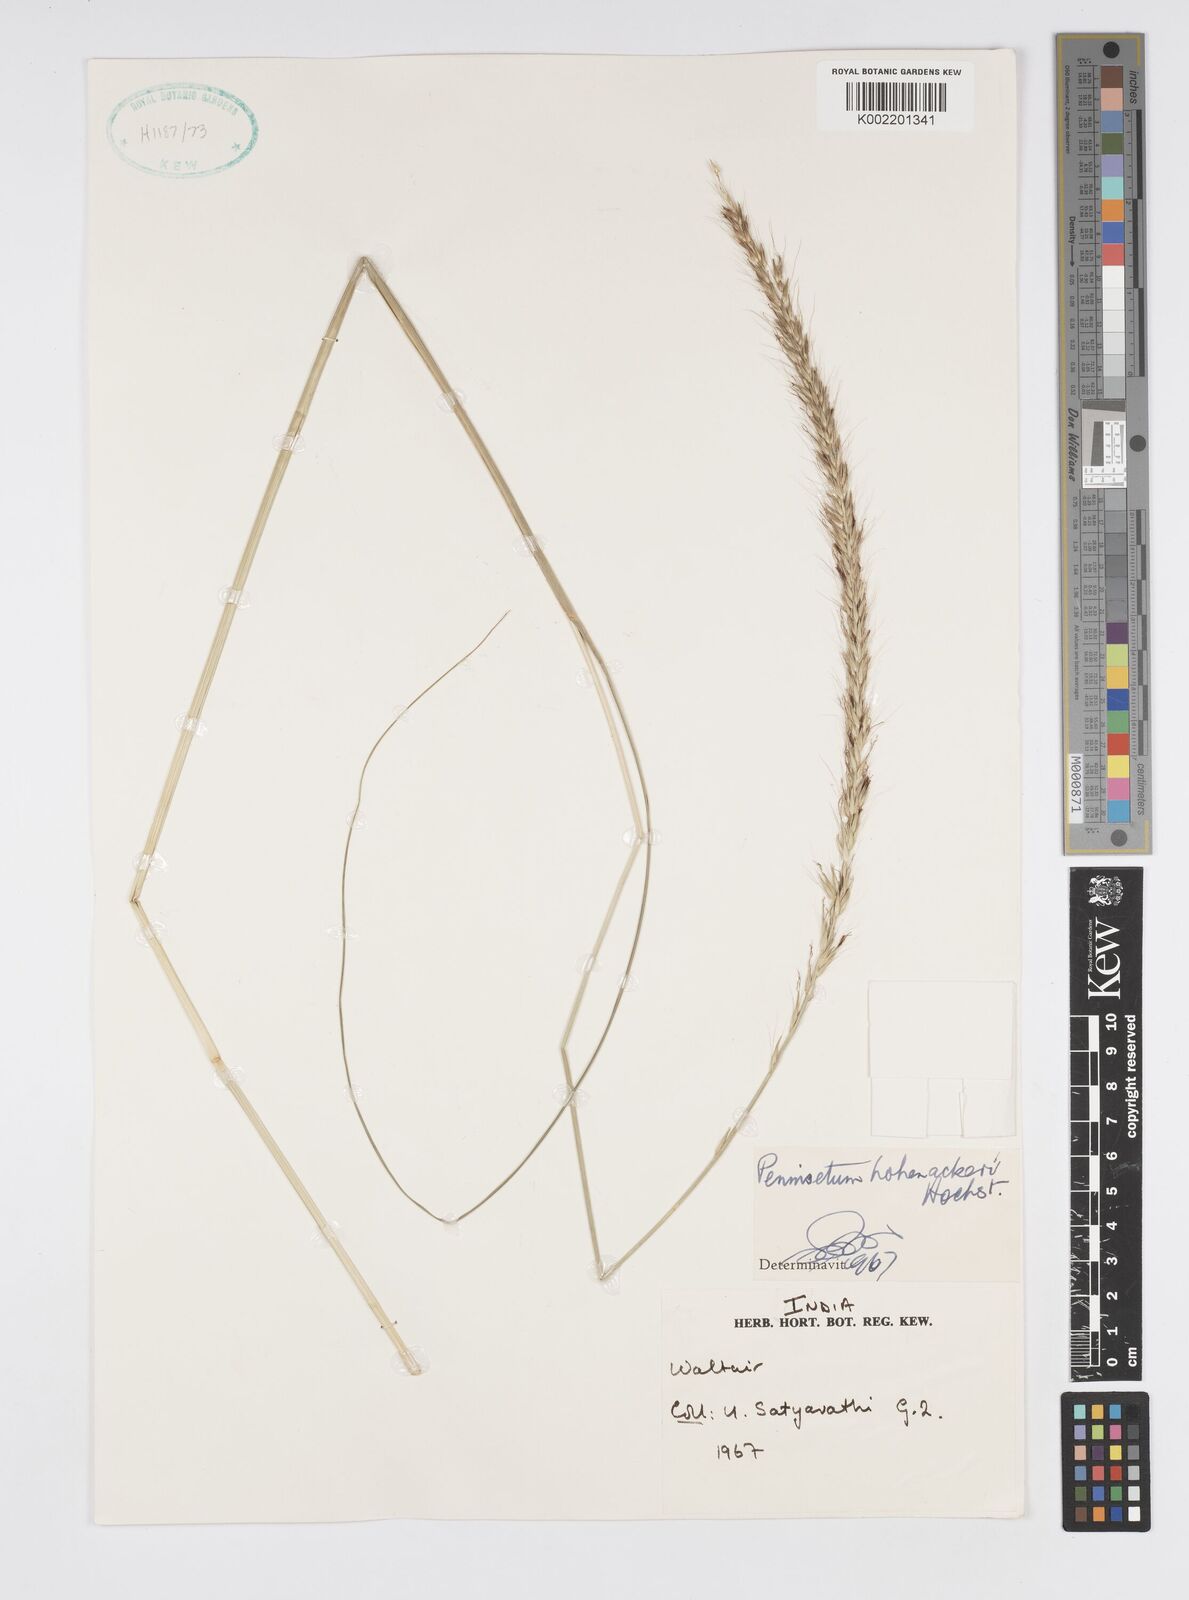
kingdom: Plantae
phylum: Tracheophyta
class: Liliopsida
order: Poales
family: Poaceae
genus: Cenchrus
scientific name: Cenchrus hohenackeri
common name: Moya grass
